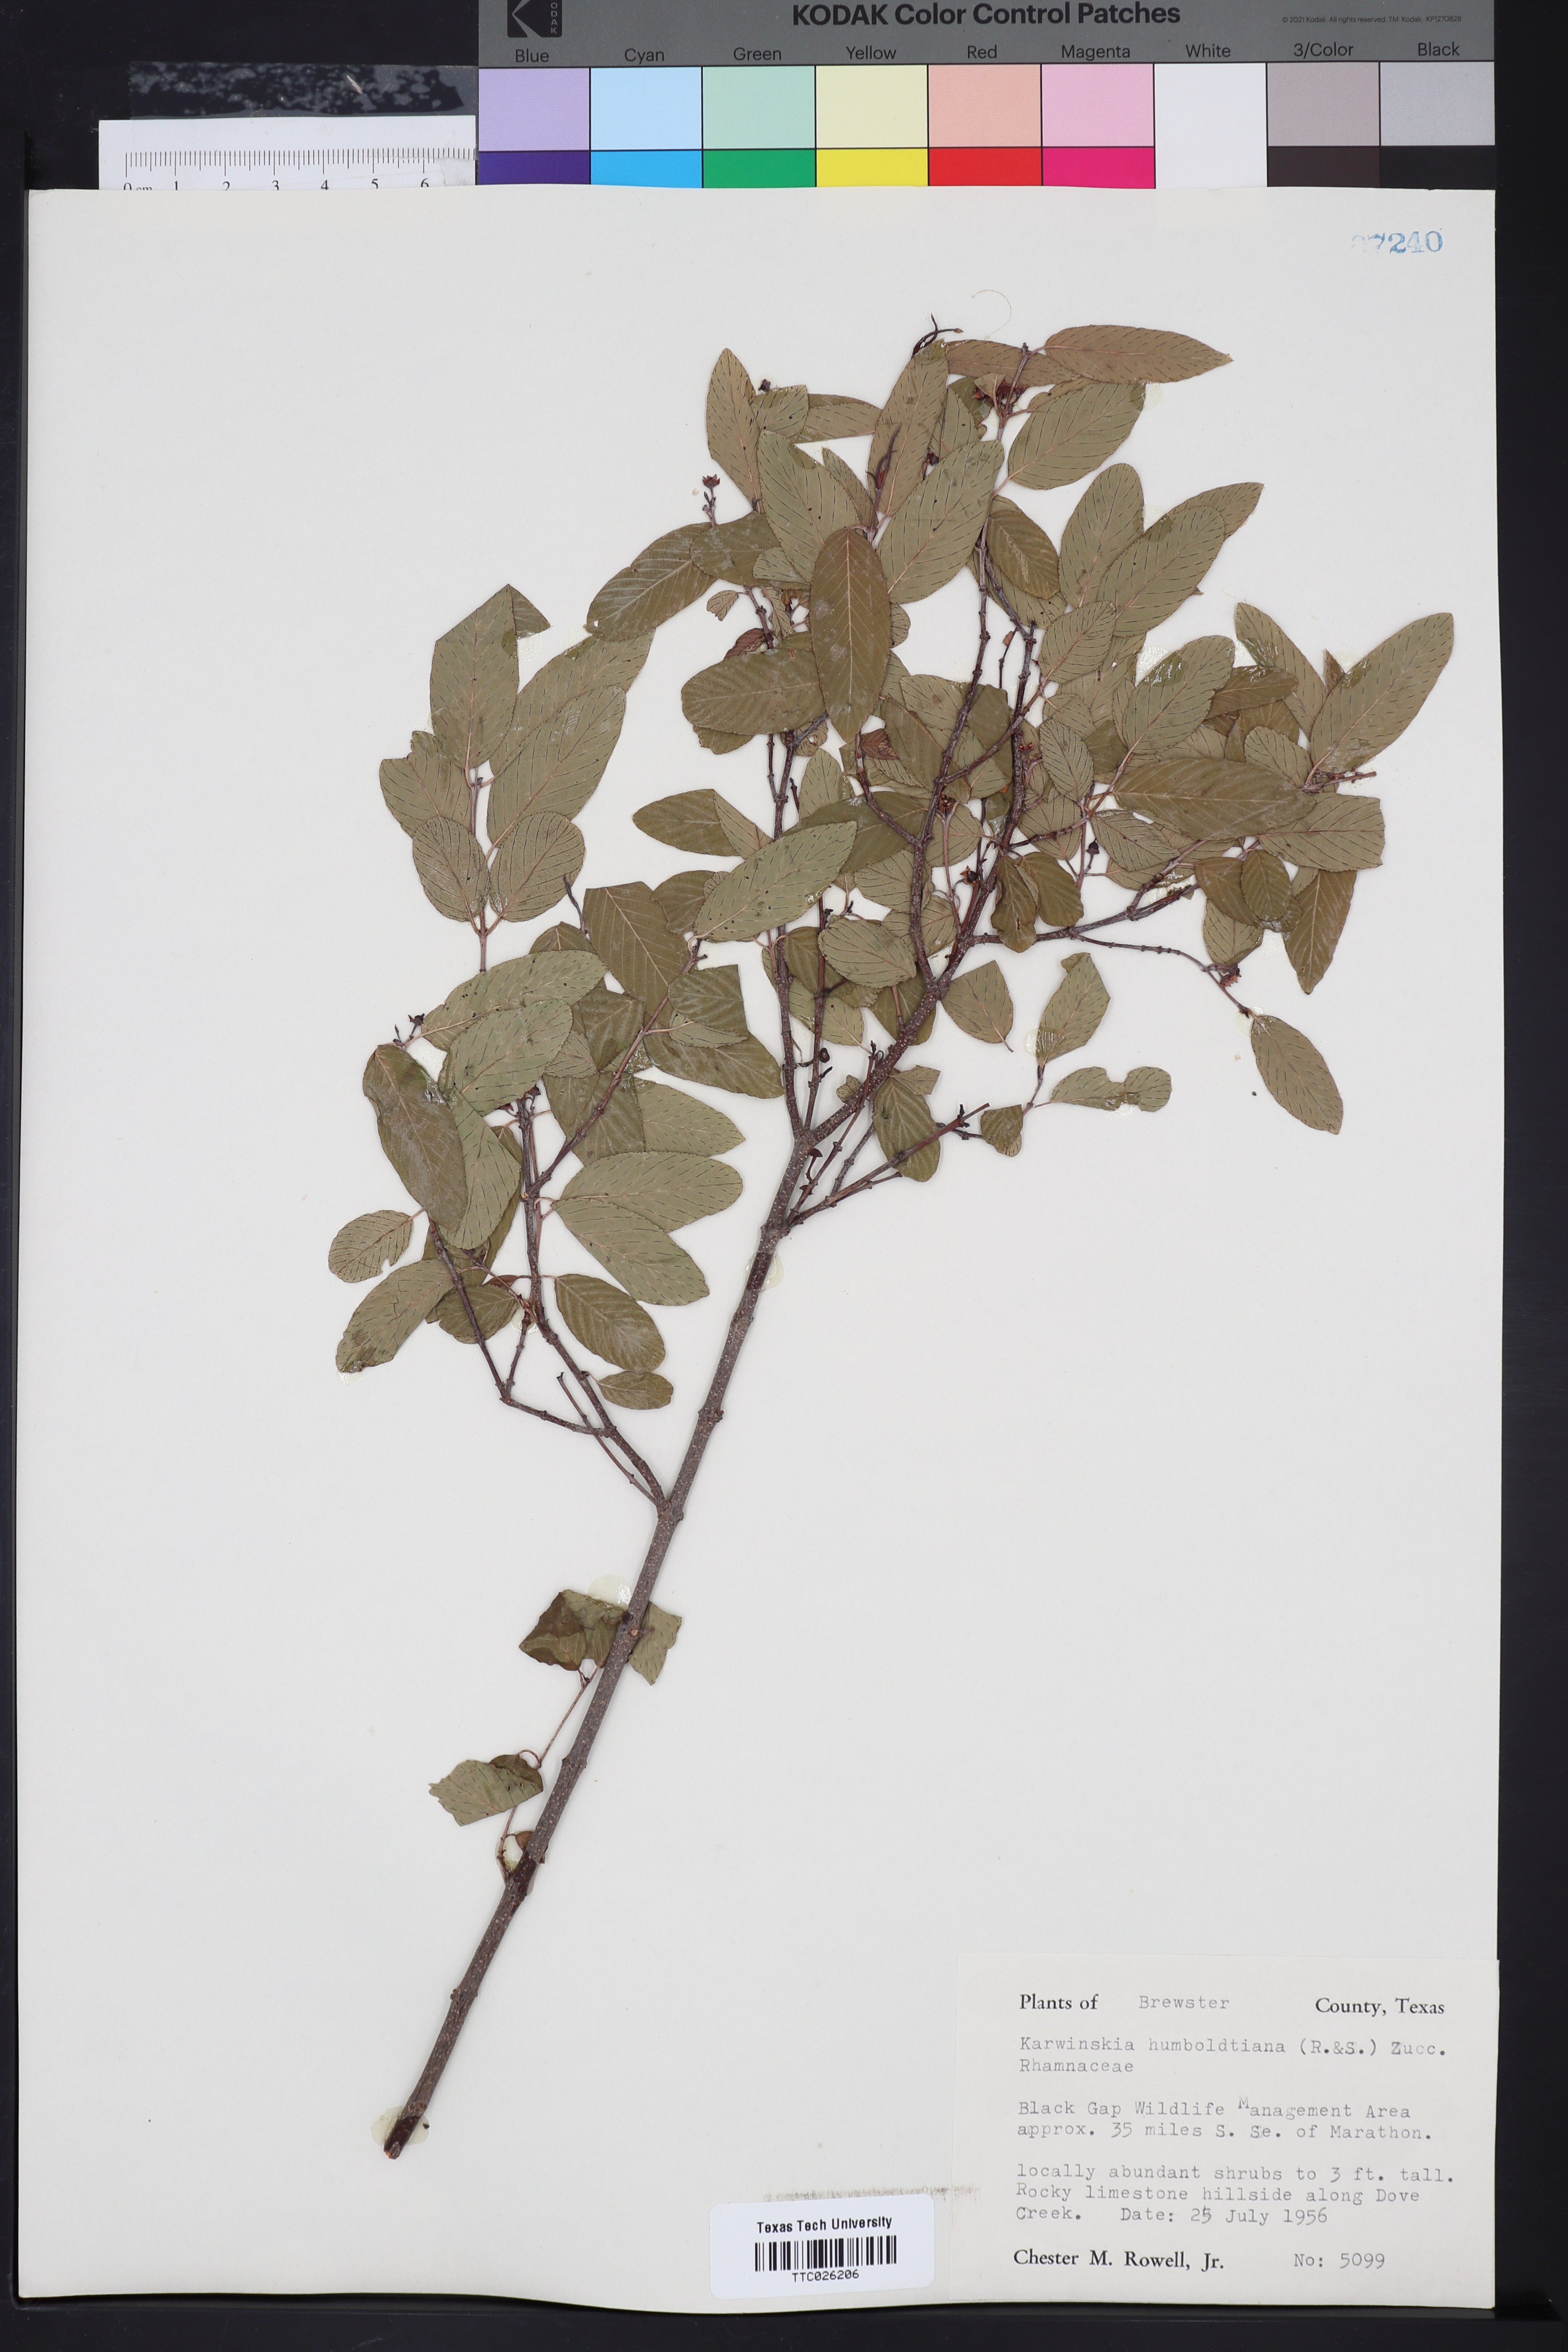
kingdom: Plantae
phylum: Tracheophyta
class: Magnoliopsida
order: Rosales
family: Rhamnaceae
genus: Karwinskia
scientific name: Karwinskia humboldtiana
